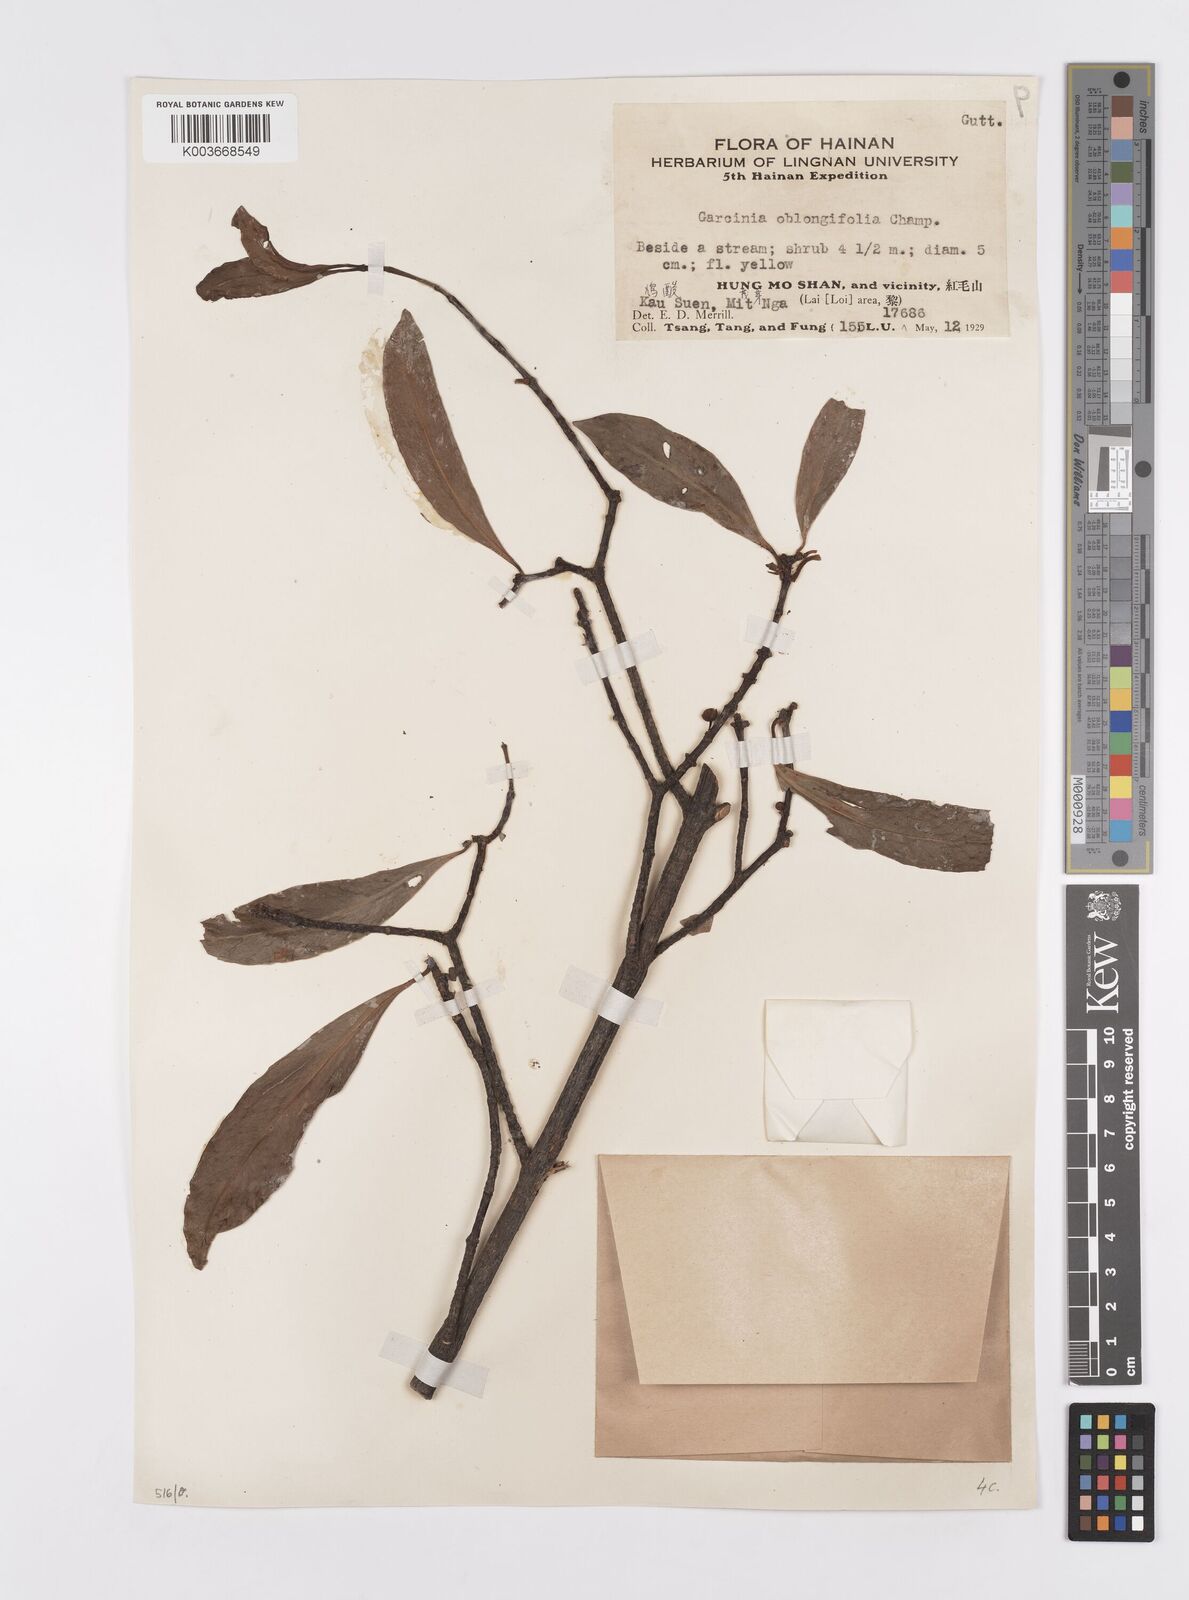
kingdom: Plantae
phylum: Tracheophyta
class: Magnoliopsida
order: Malpighiales
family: Clusiaceae
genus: Garcinia
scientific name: Garcinia oblongifolia
